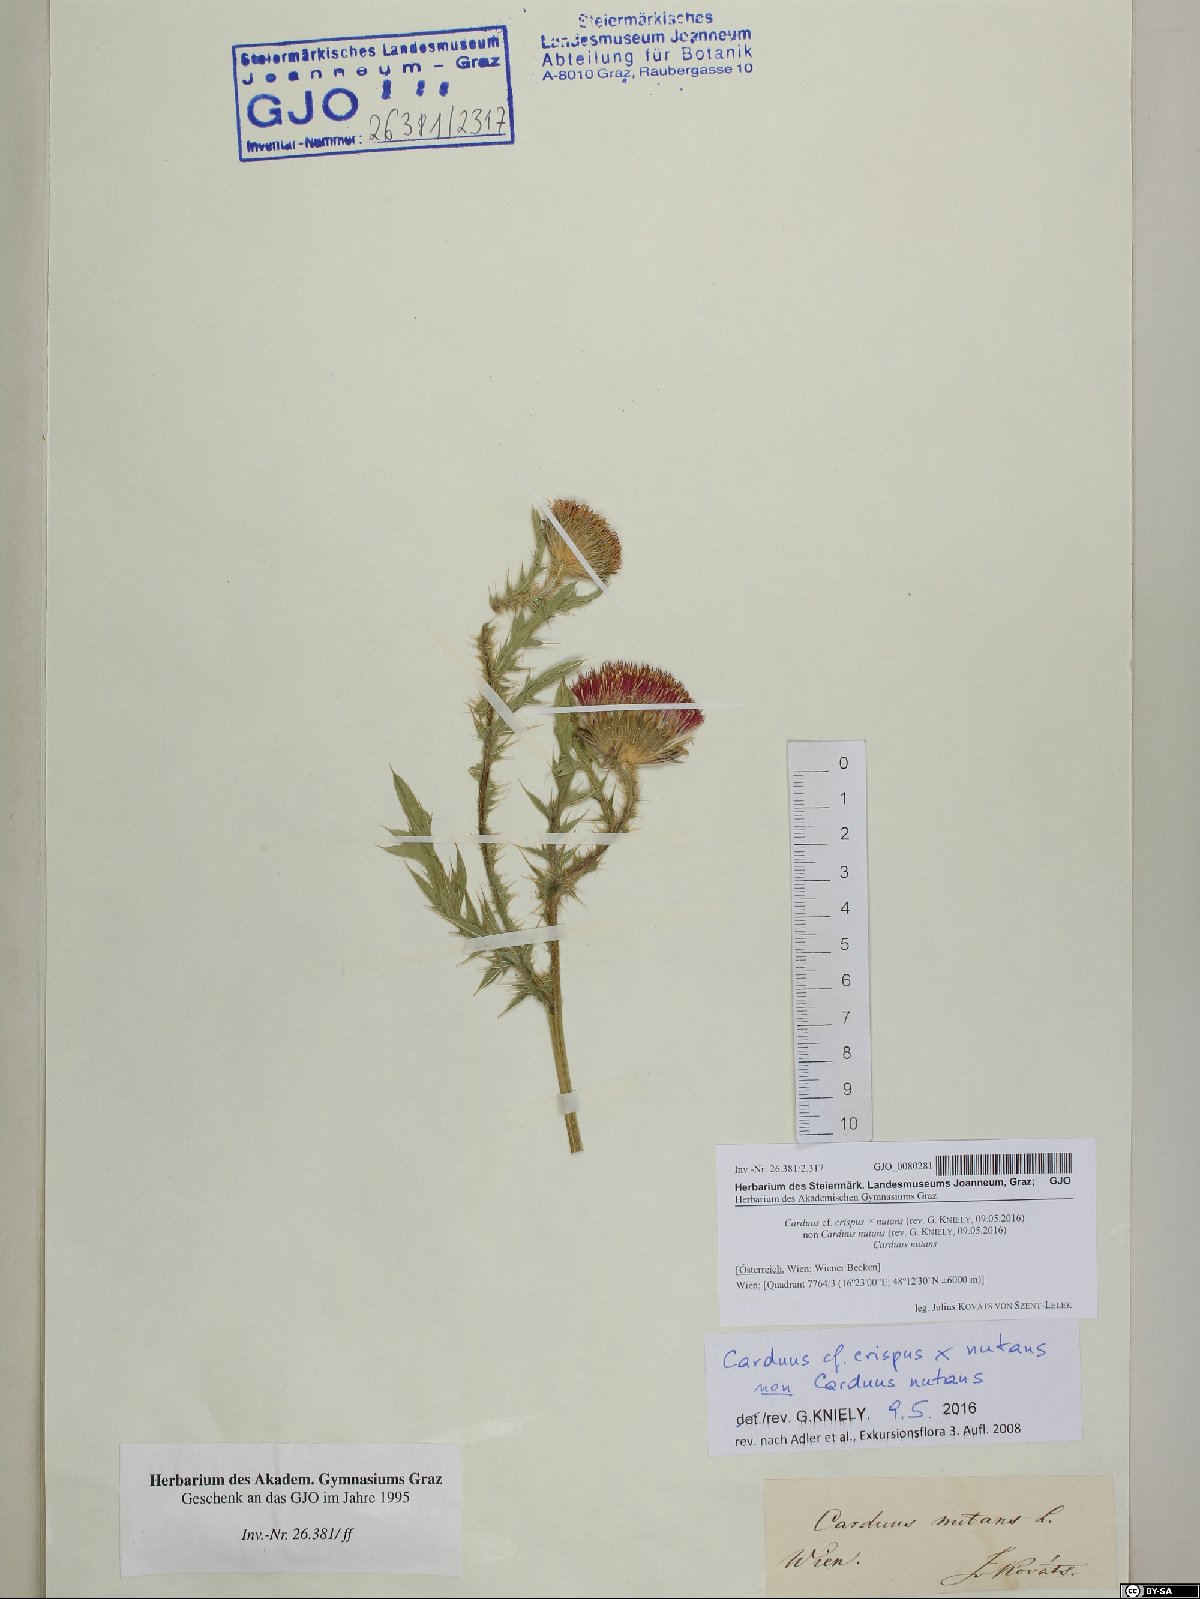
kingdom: Plantae
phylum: Tracheophyta
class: Magnoliopsida
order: Asterales
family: Asteraceae
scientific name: Asteraceae
